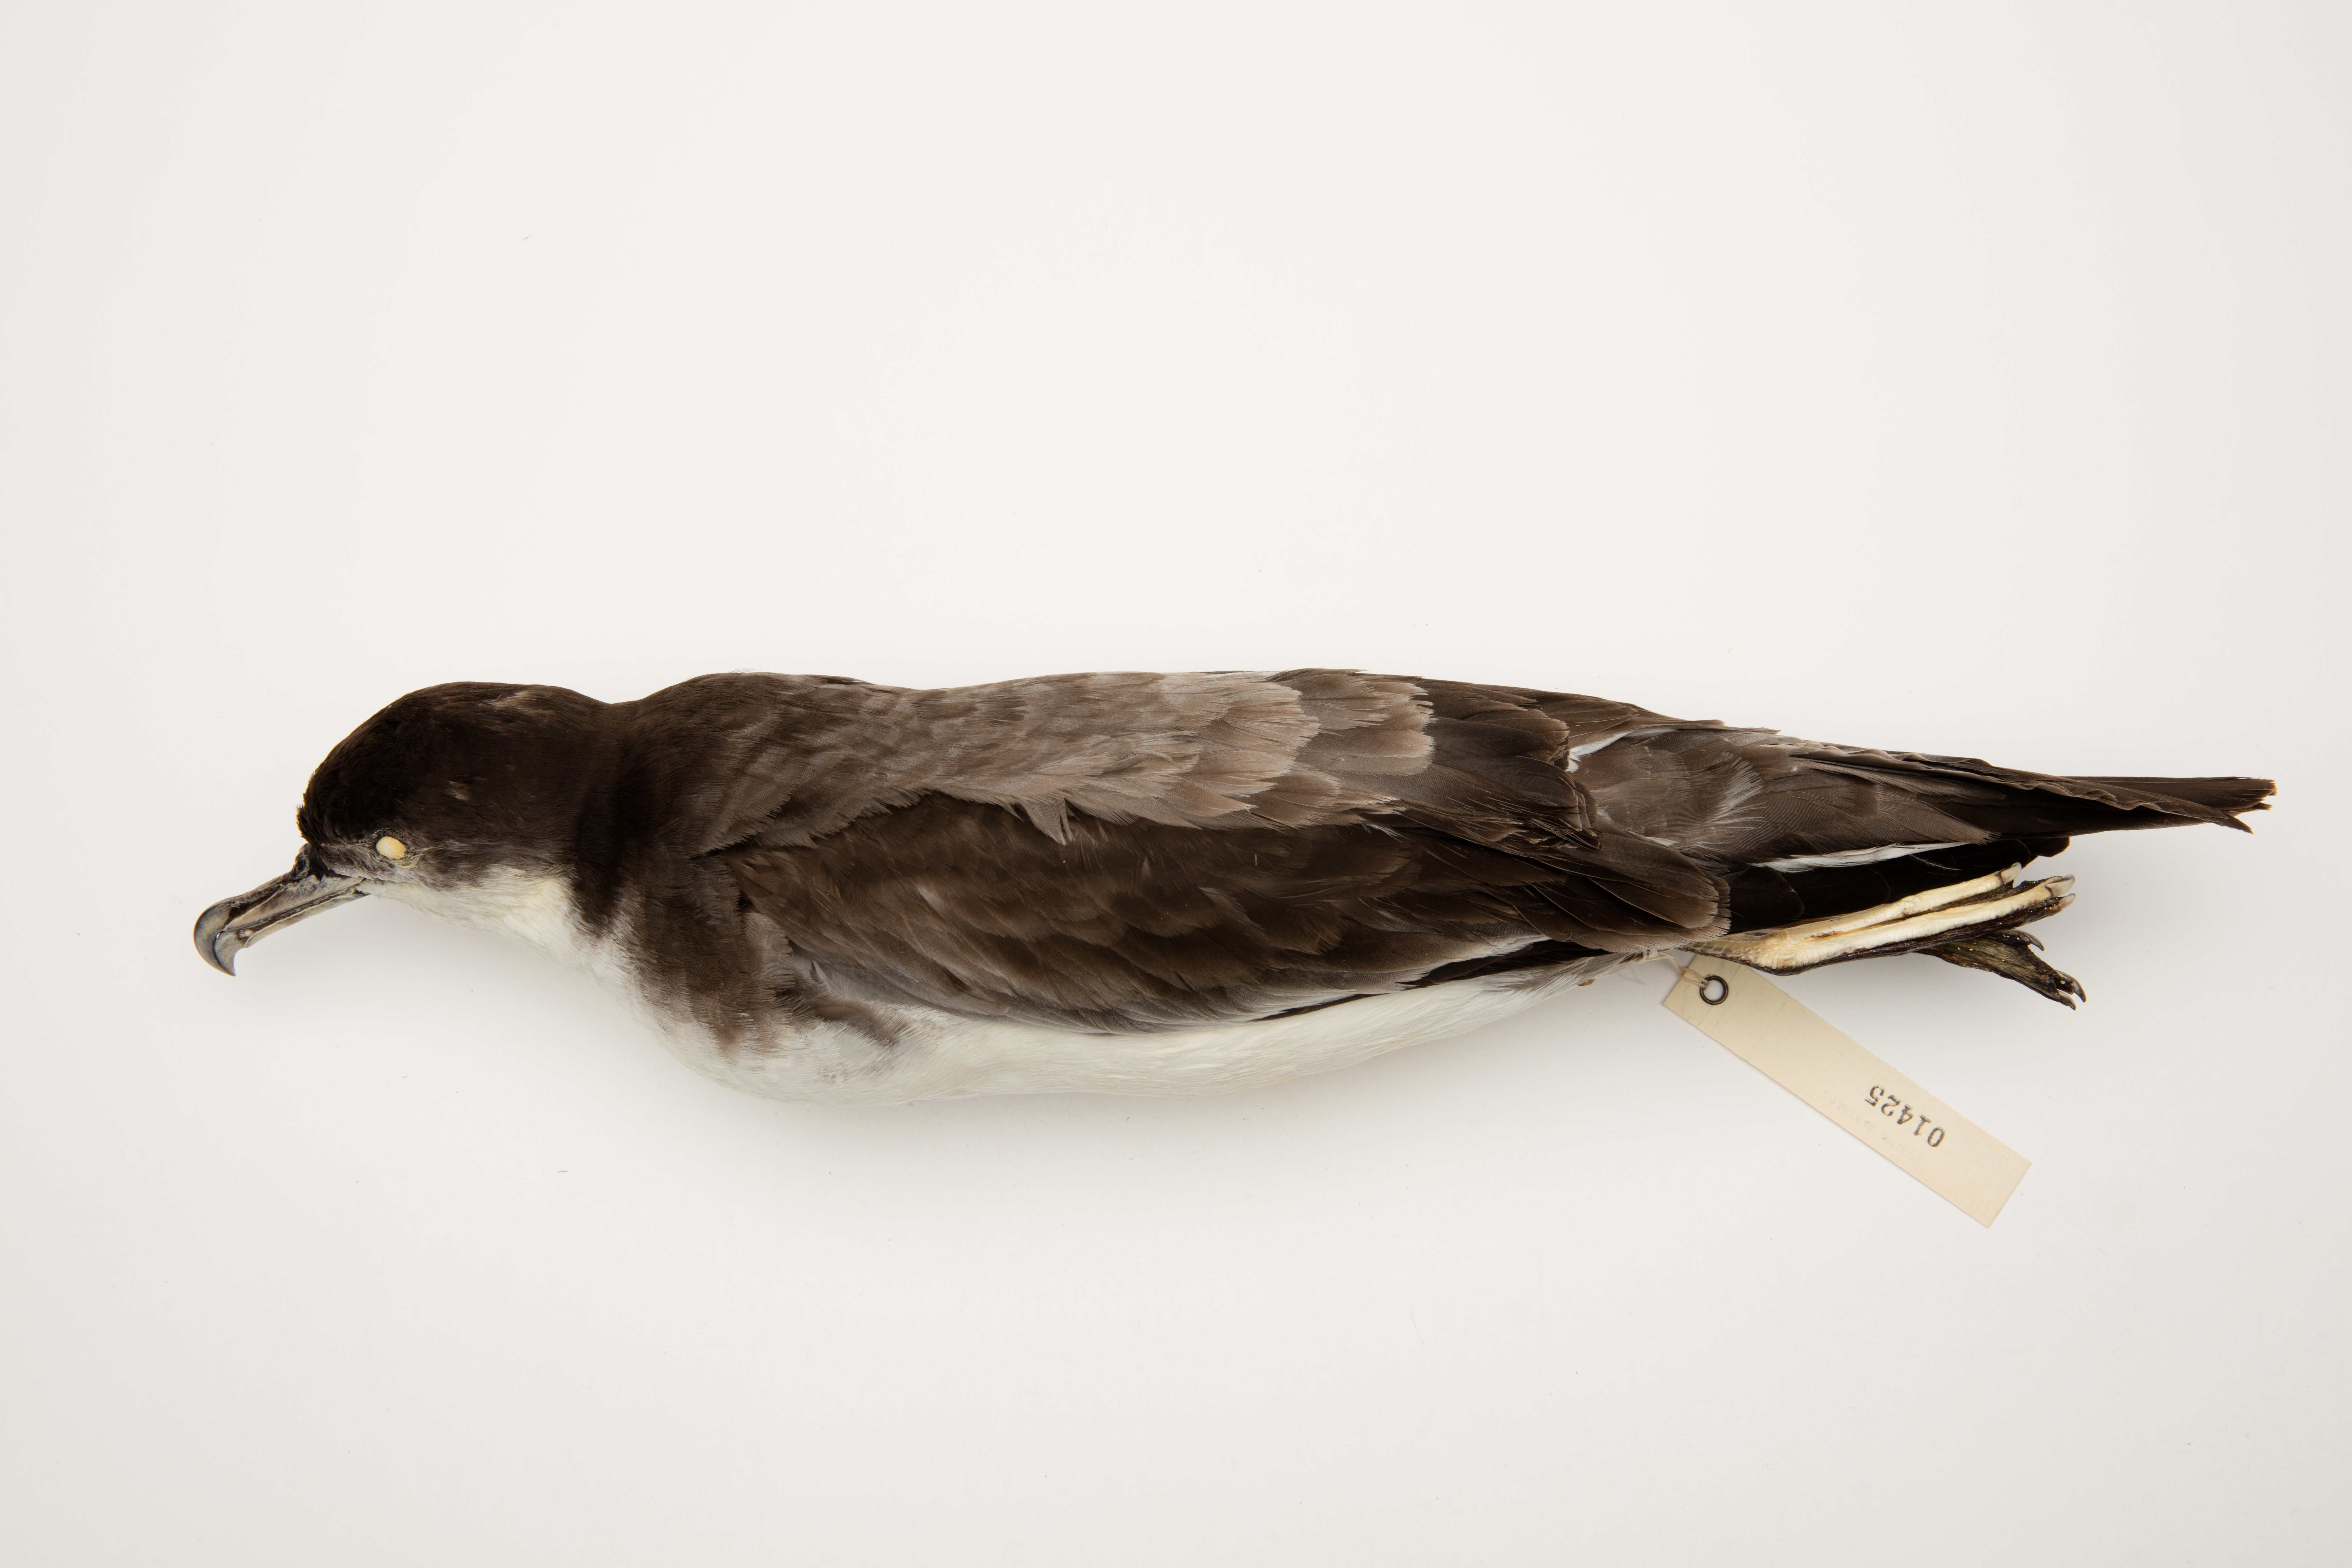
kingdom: Animalia
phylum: Chordata
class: Aves
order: Procellariiformes
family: Procellariidae
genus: Ardenna
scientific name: Ardenna
